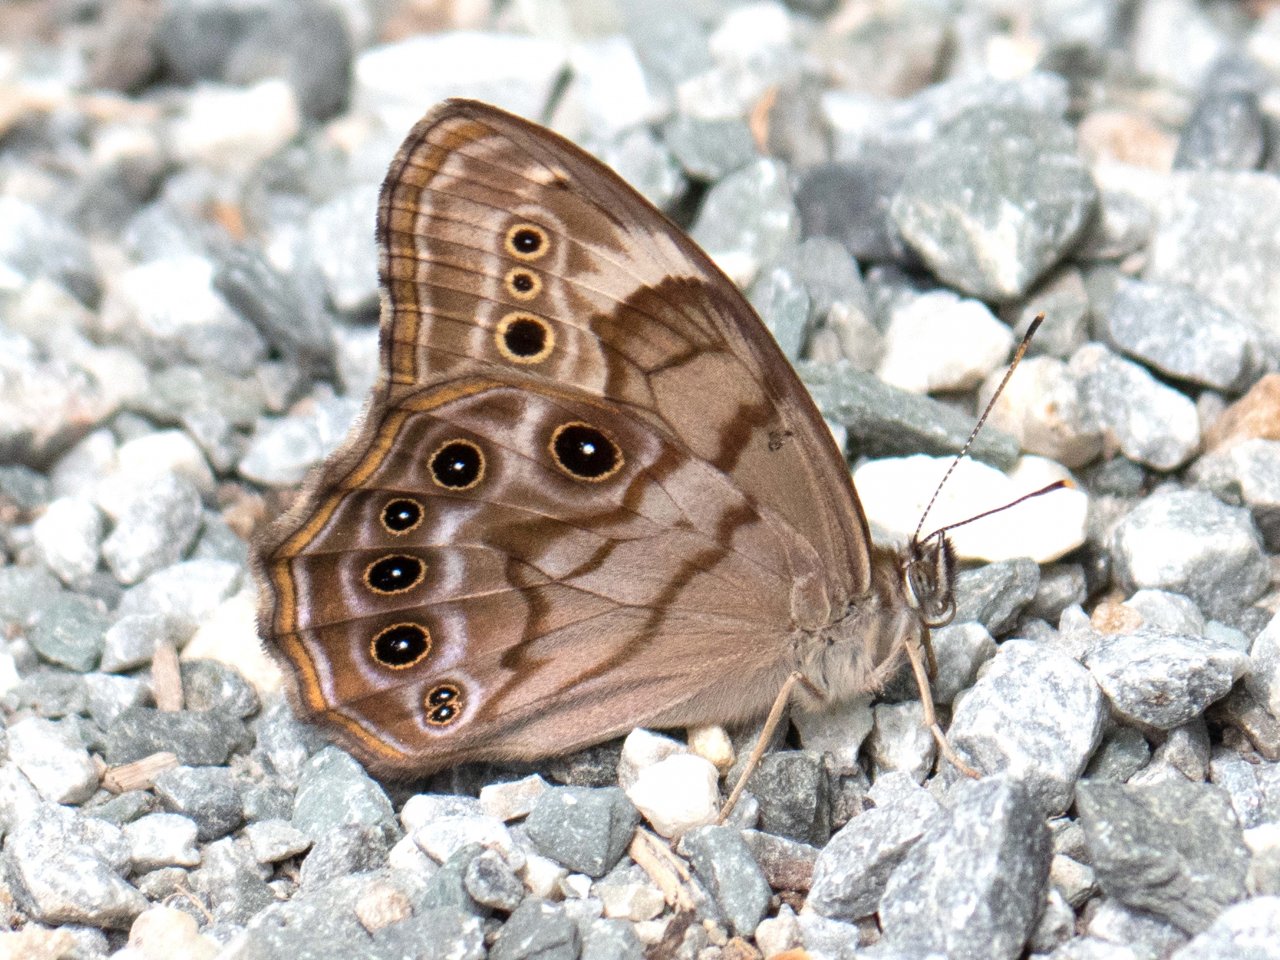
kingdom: Animalia
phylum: Arthropoda
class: Insecta
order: Lepidoptera
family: Nymphalidae
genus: Lethe
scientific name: Lethe anthedon
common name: Northern Pearly-Eye
